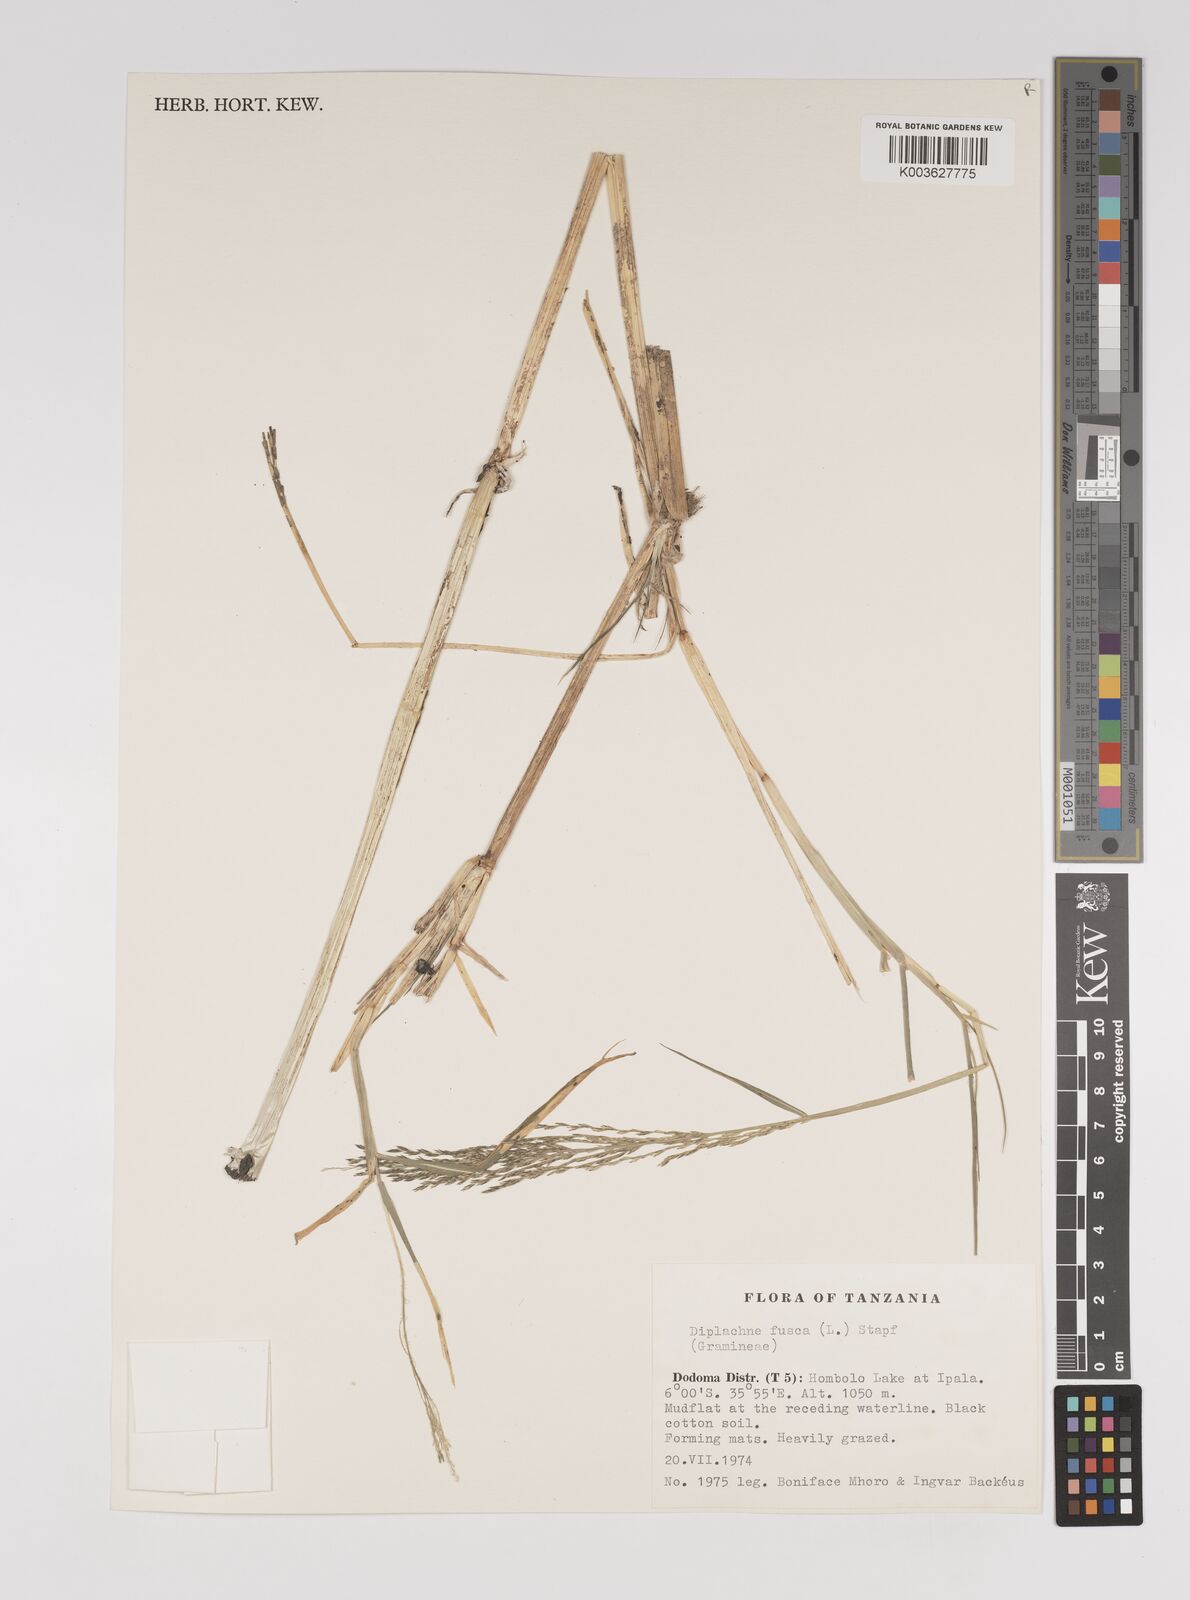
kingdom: Plantae
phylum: Tracheophyta
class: Liliopsida
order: Poales
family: Poaceae
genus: Diplachne
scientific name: Diplachne fusca
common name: Brown beetle grass
